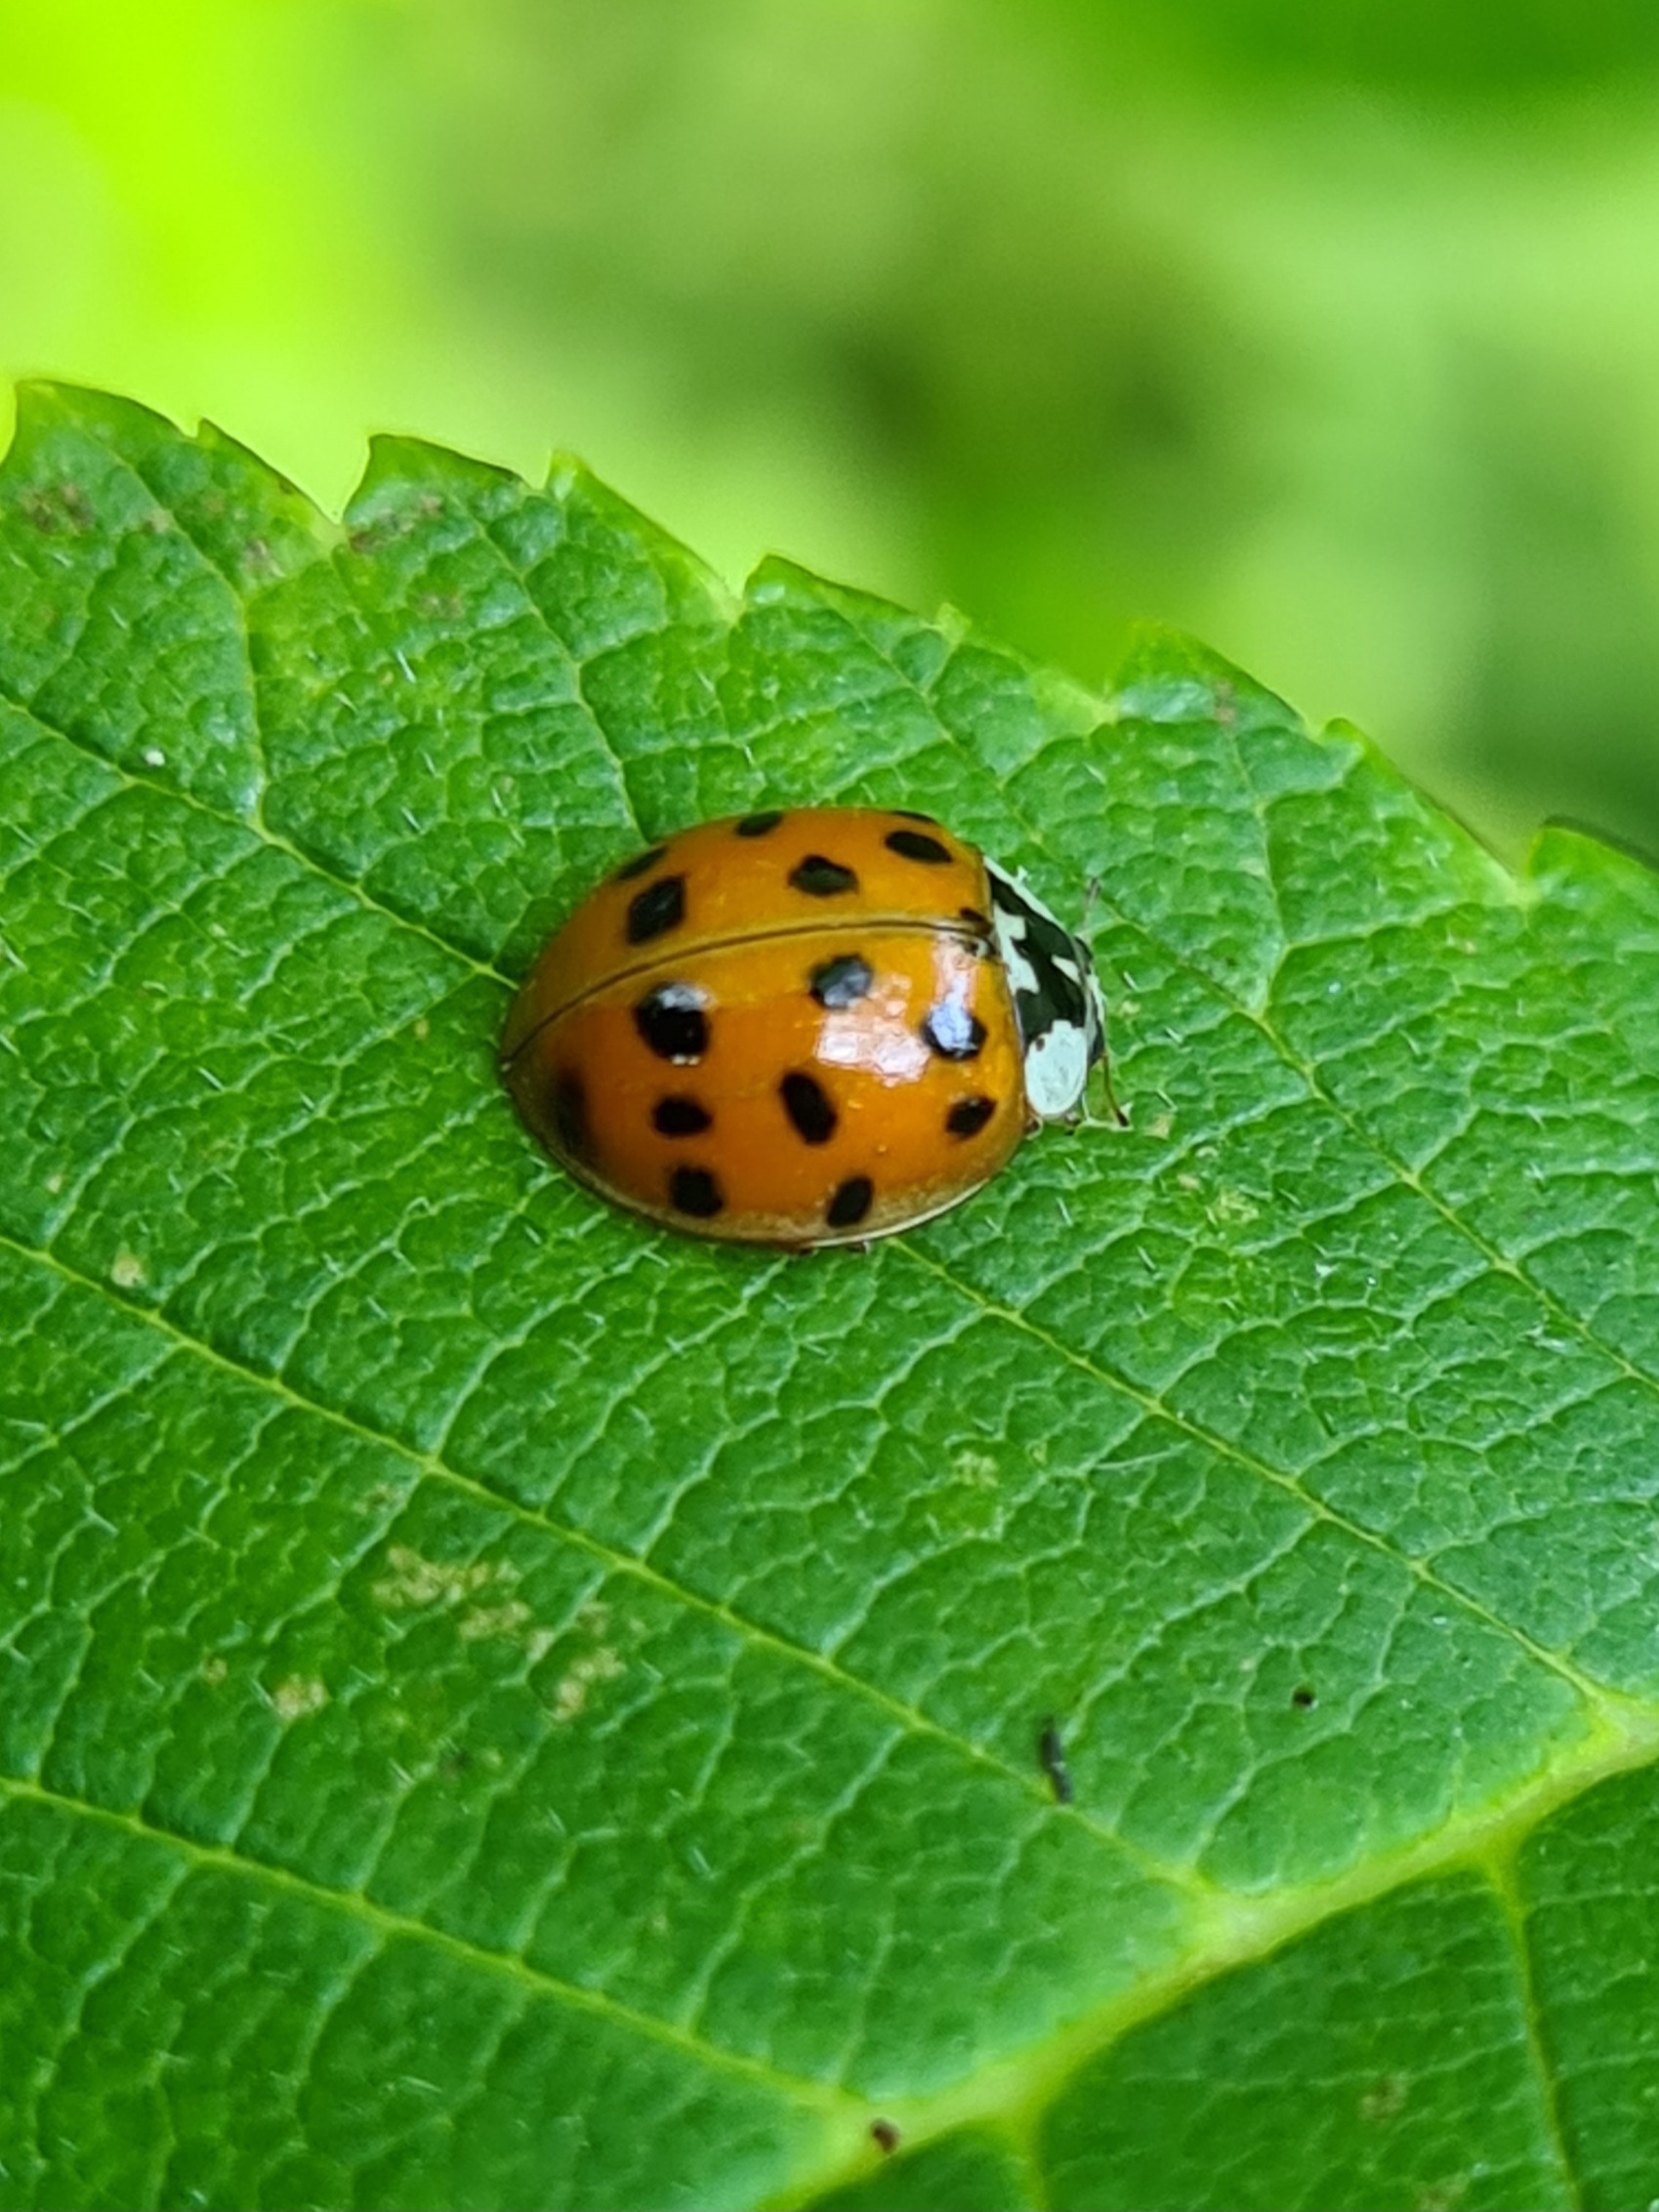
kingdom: Animalia
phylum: Arthropoda
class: Insecta
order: Coleoptera
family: Coccinellidae
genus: Harmonia
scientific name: Harmonia axyridis
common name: Harlekinmariehøne
